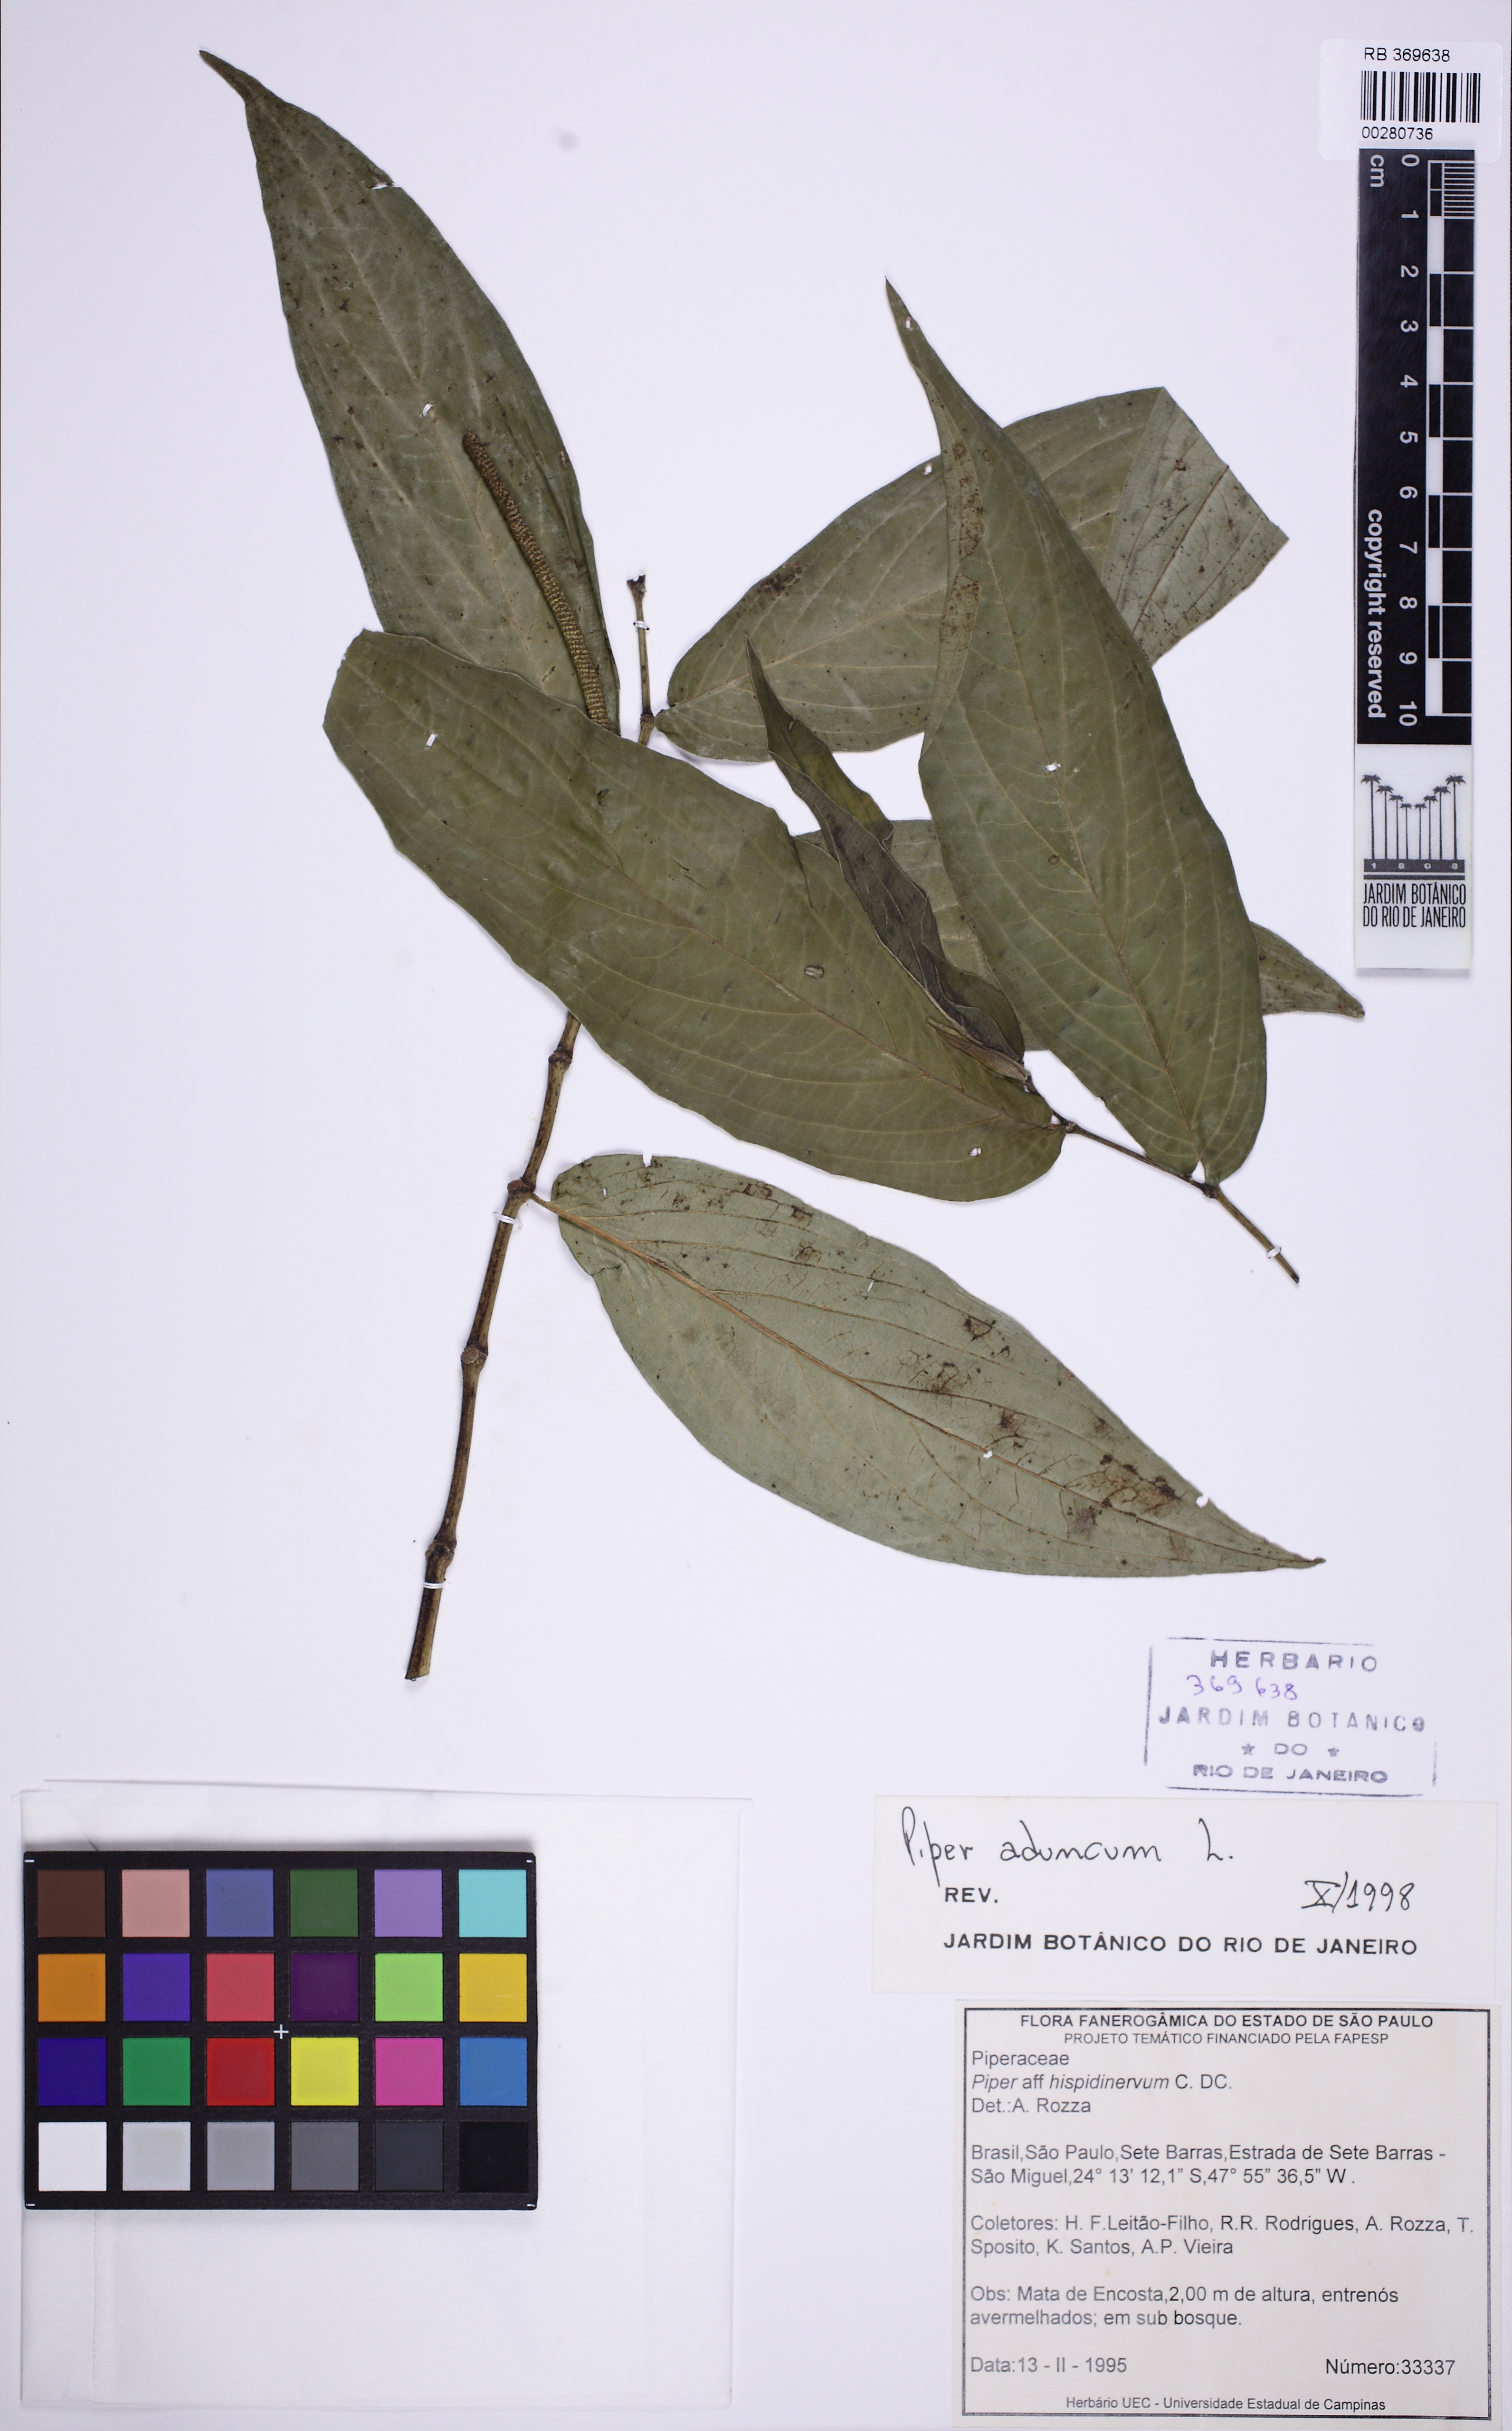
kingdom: Plantae
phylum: Tracheophyta
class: Magnoliopsida
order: Piperales
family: Piperaceae
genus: Piper
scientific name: Piper aduncum
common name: Spiked pepper
